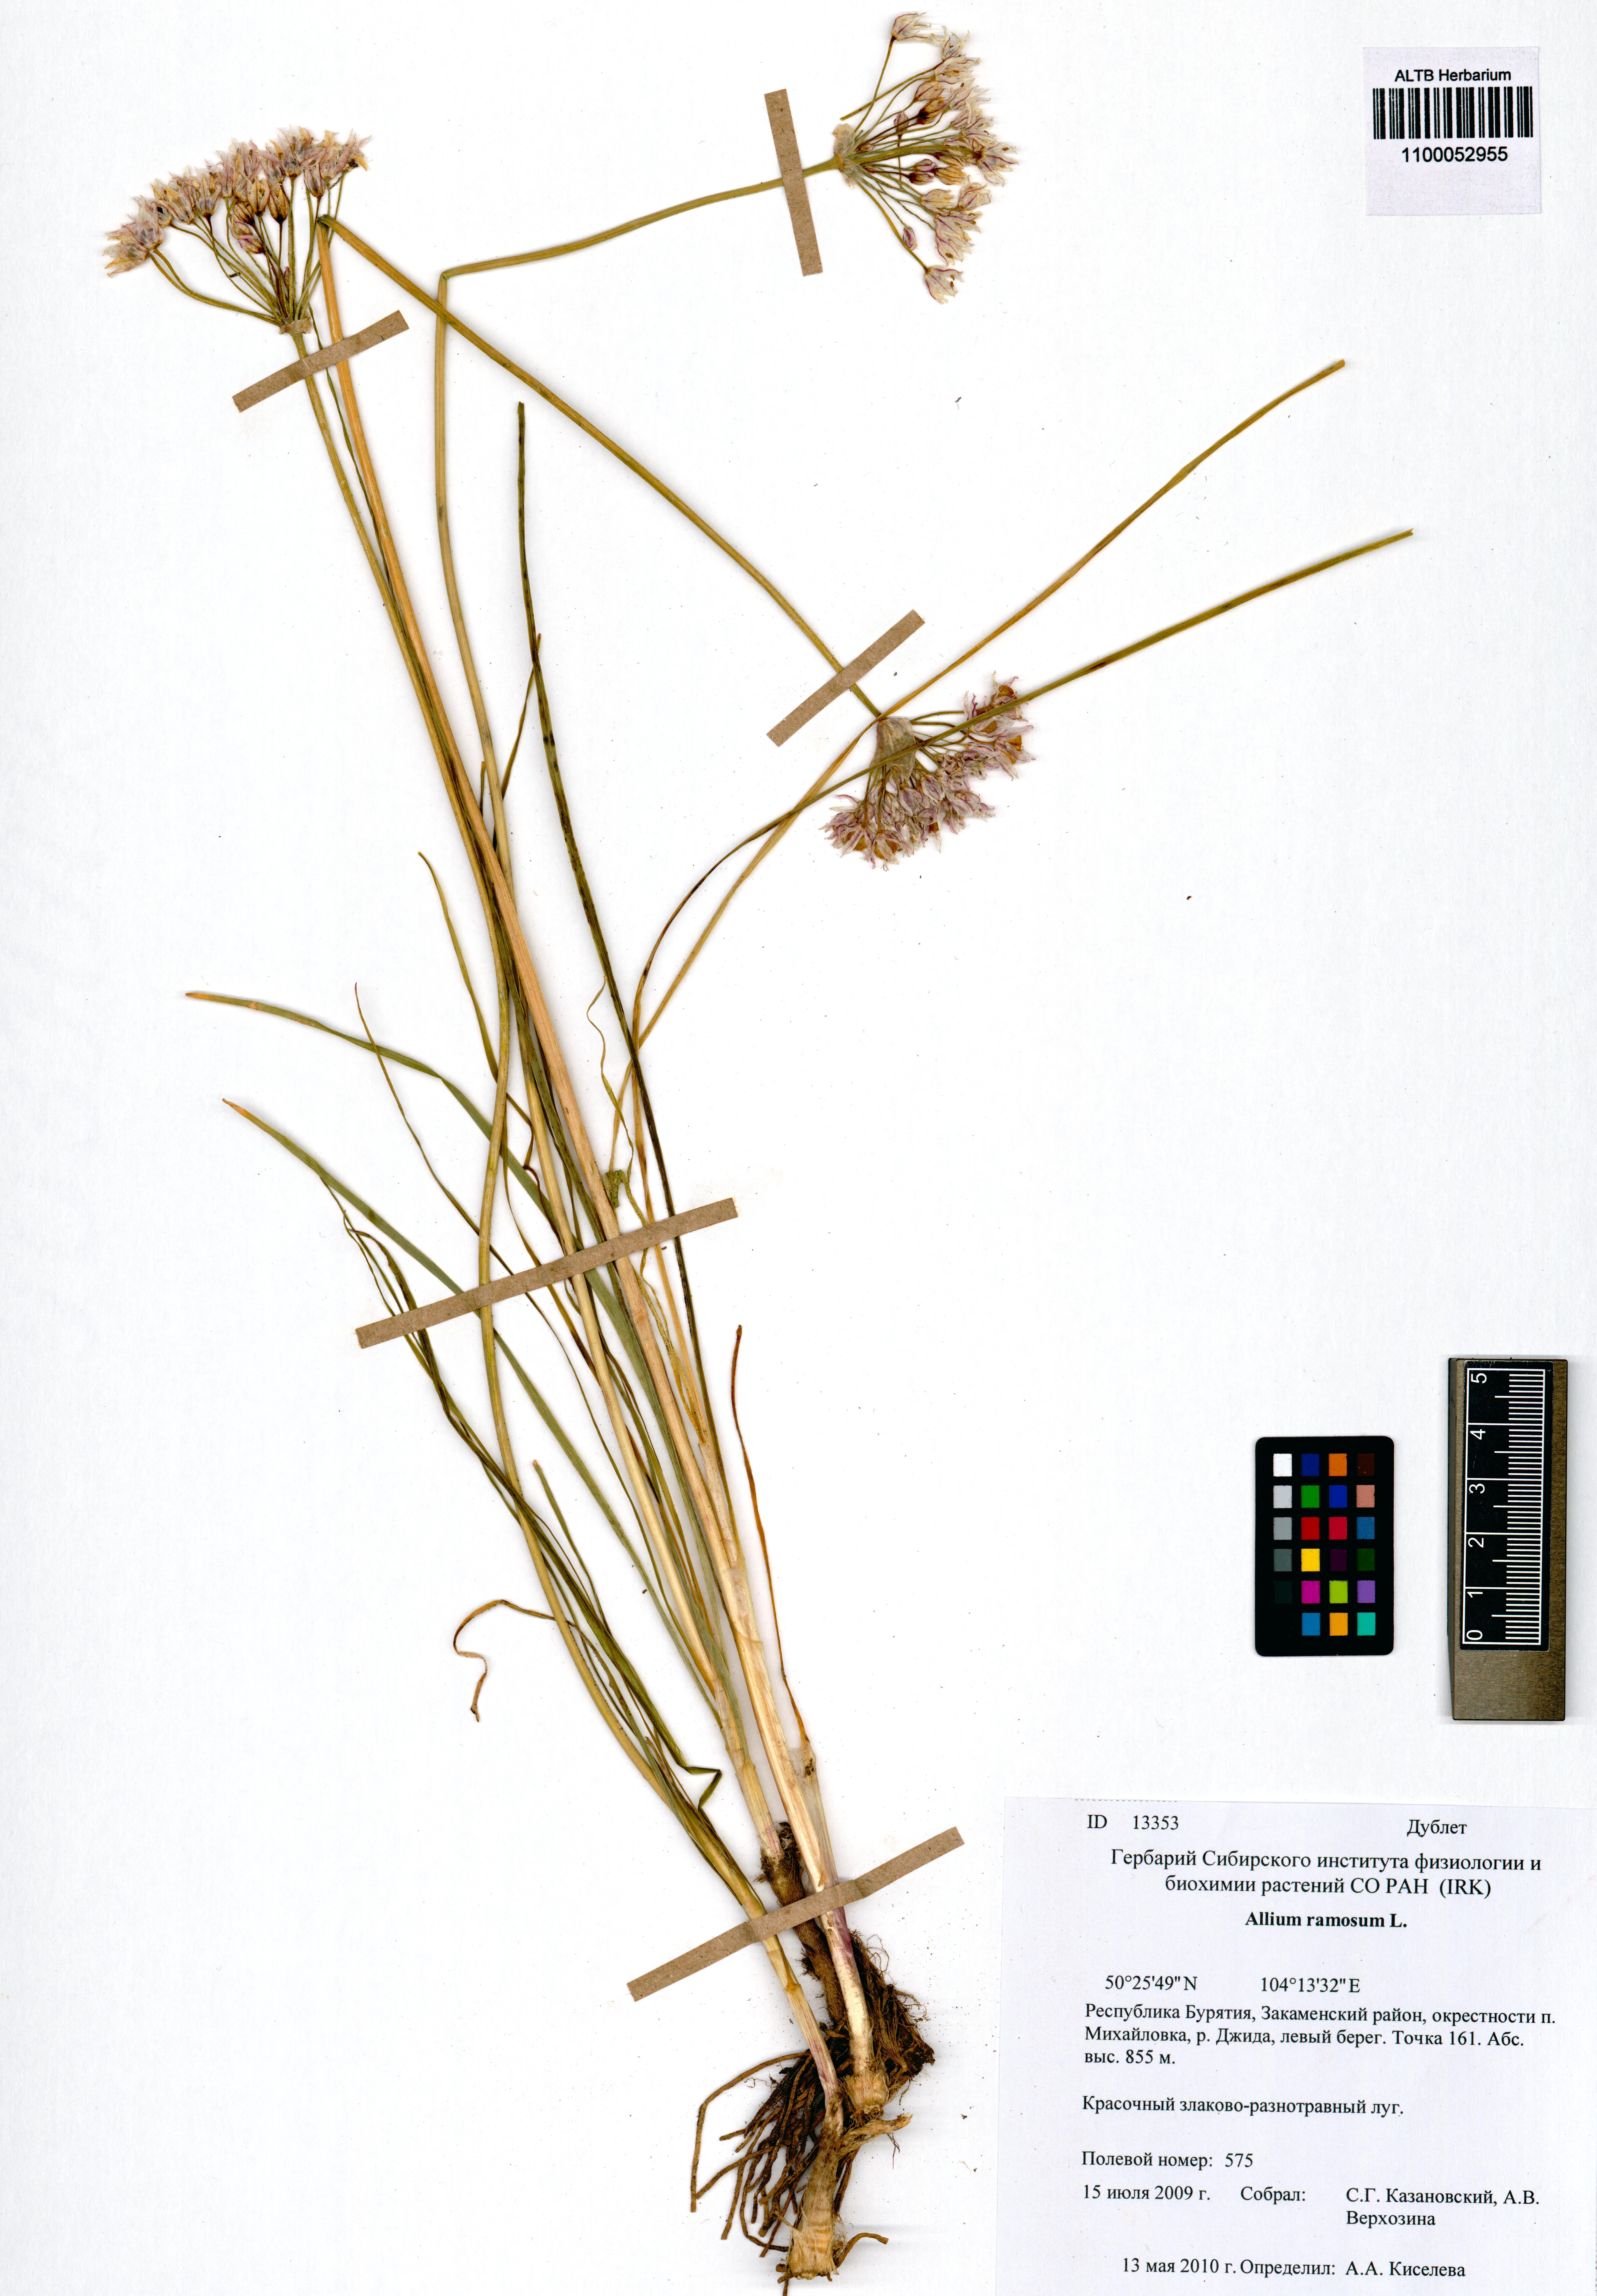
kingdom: Plantae
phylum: Tracheophyta
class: Liliopsida
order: Asparagales
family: Amaryllidaceae
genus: Allium
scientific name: Allium ramosum
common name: Fragrant garlic
